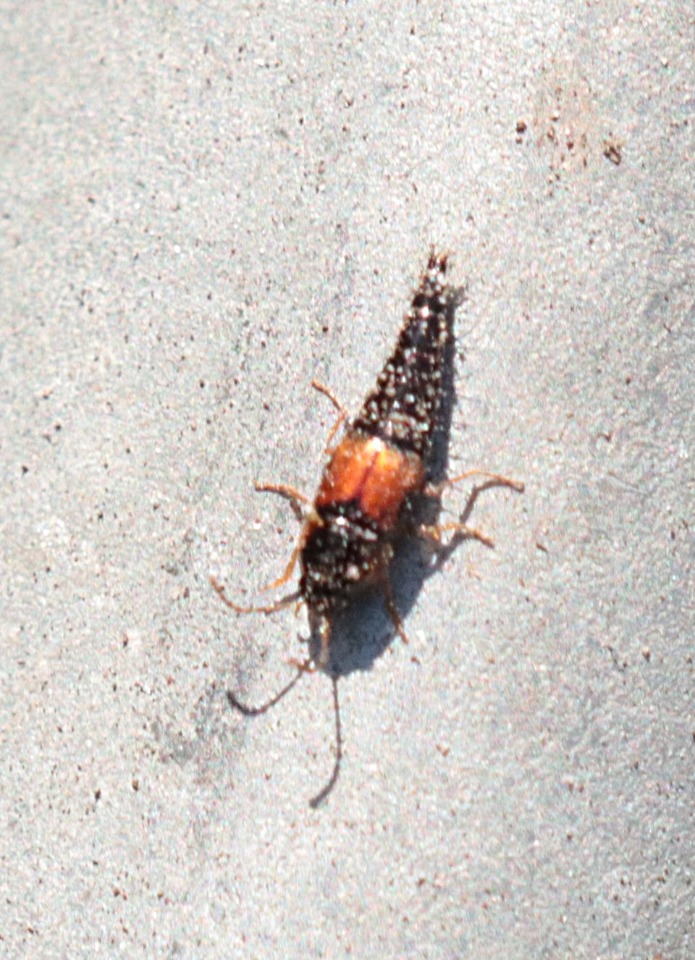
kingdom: Animalia
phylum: Arthropoda
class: Insecta
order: Coleoptera
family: Staphylinidae
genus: Tachyporus
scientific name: Tachyporus hypnorum
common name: Sortplettet agerrovbille
